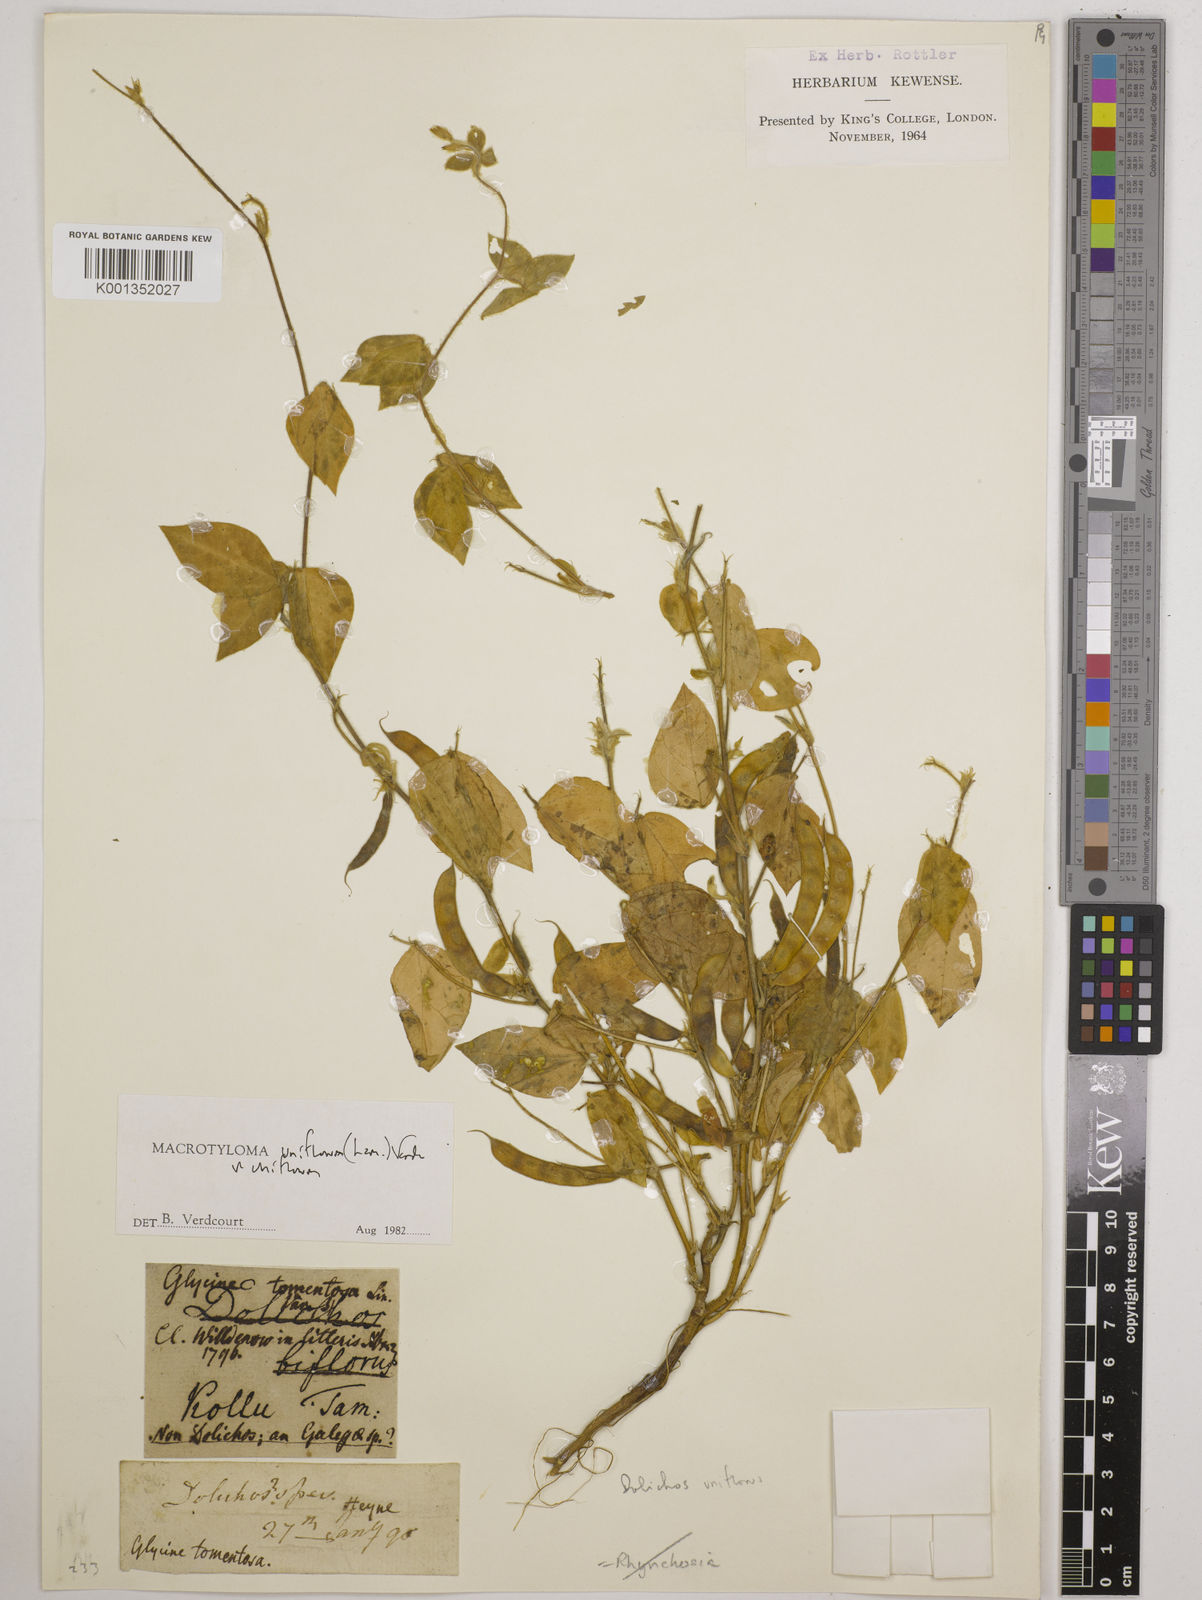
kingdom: Plantae
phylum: Tracheophyta
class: Magnoliopsida
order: Fabales
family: Fabaceae
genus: Macrotyloma
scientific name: Macrotyloma uniflorum
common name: Horse gram
